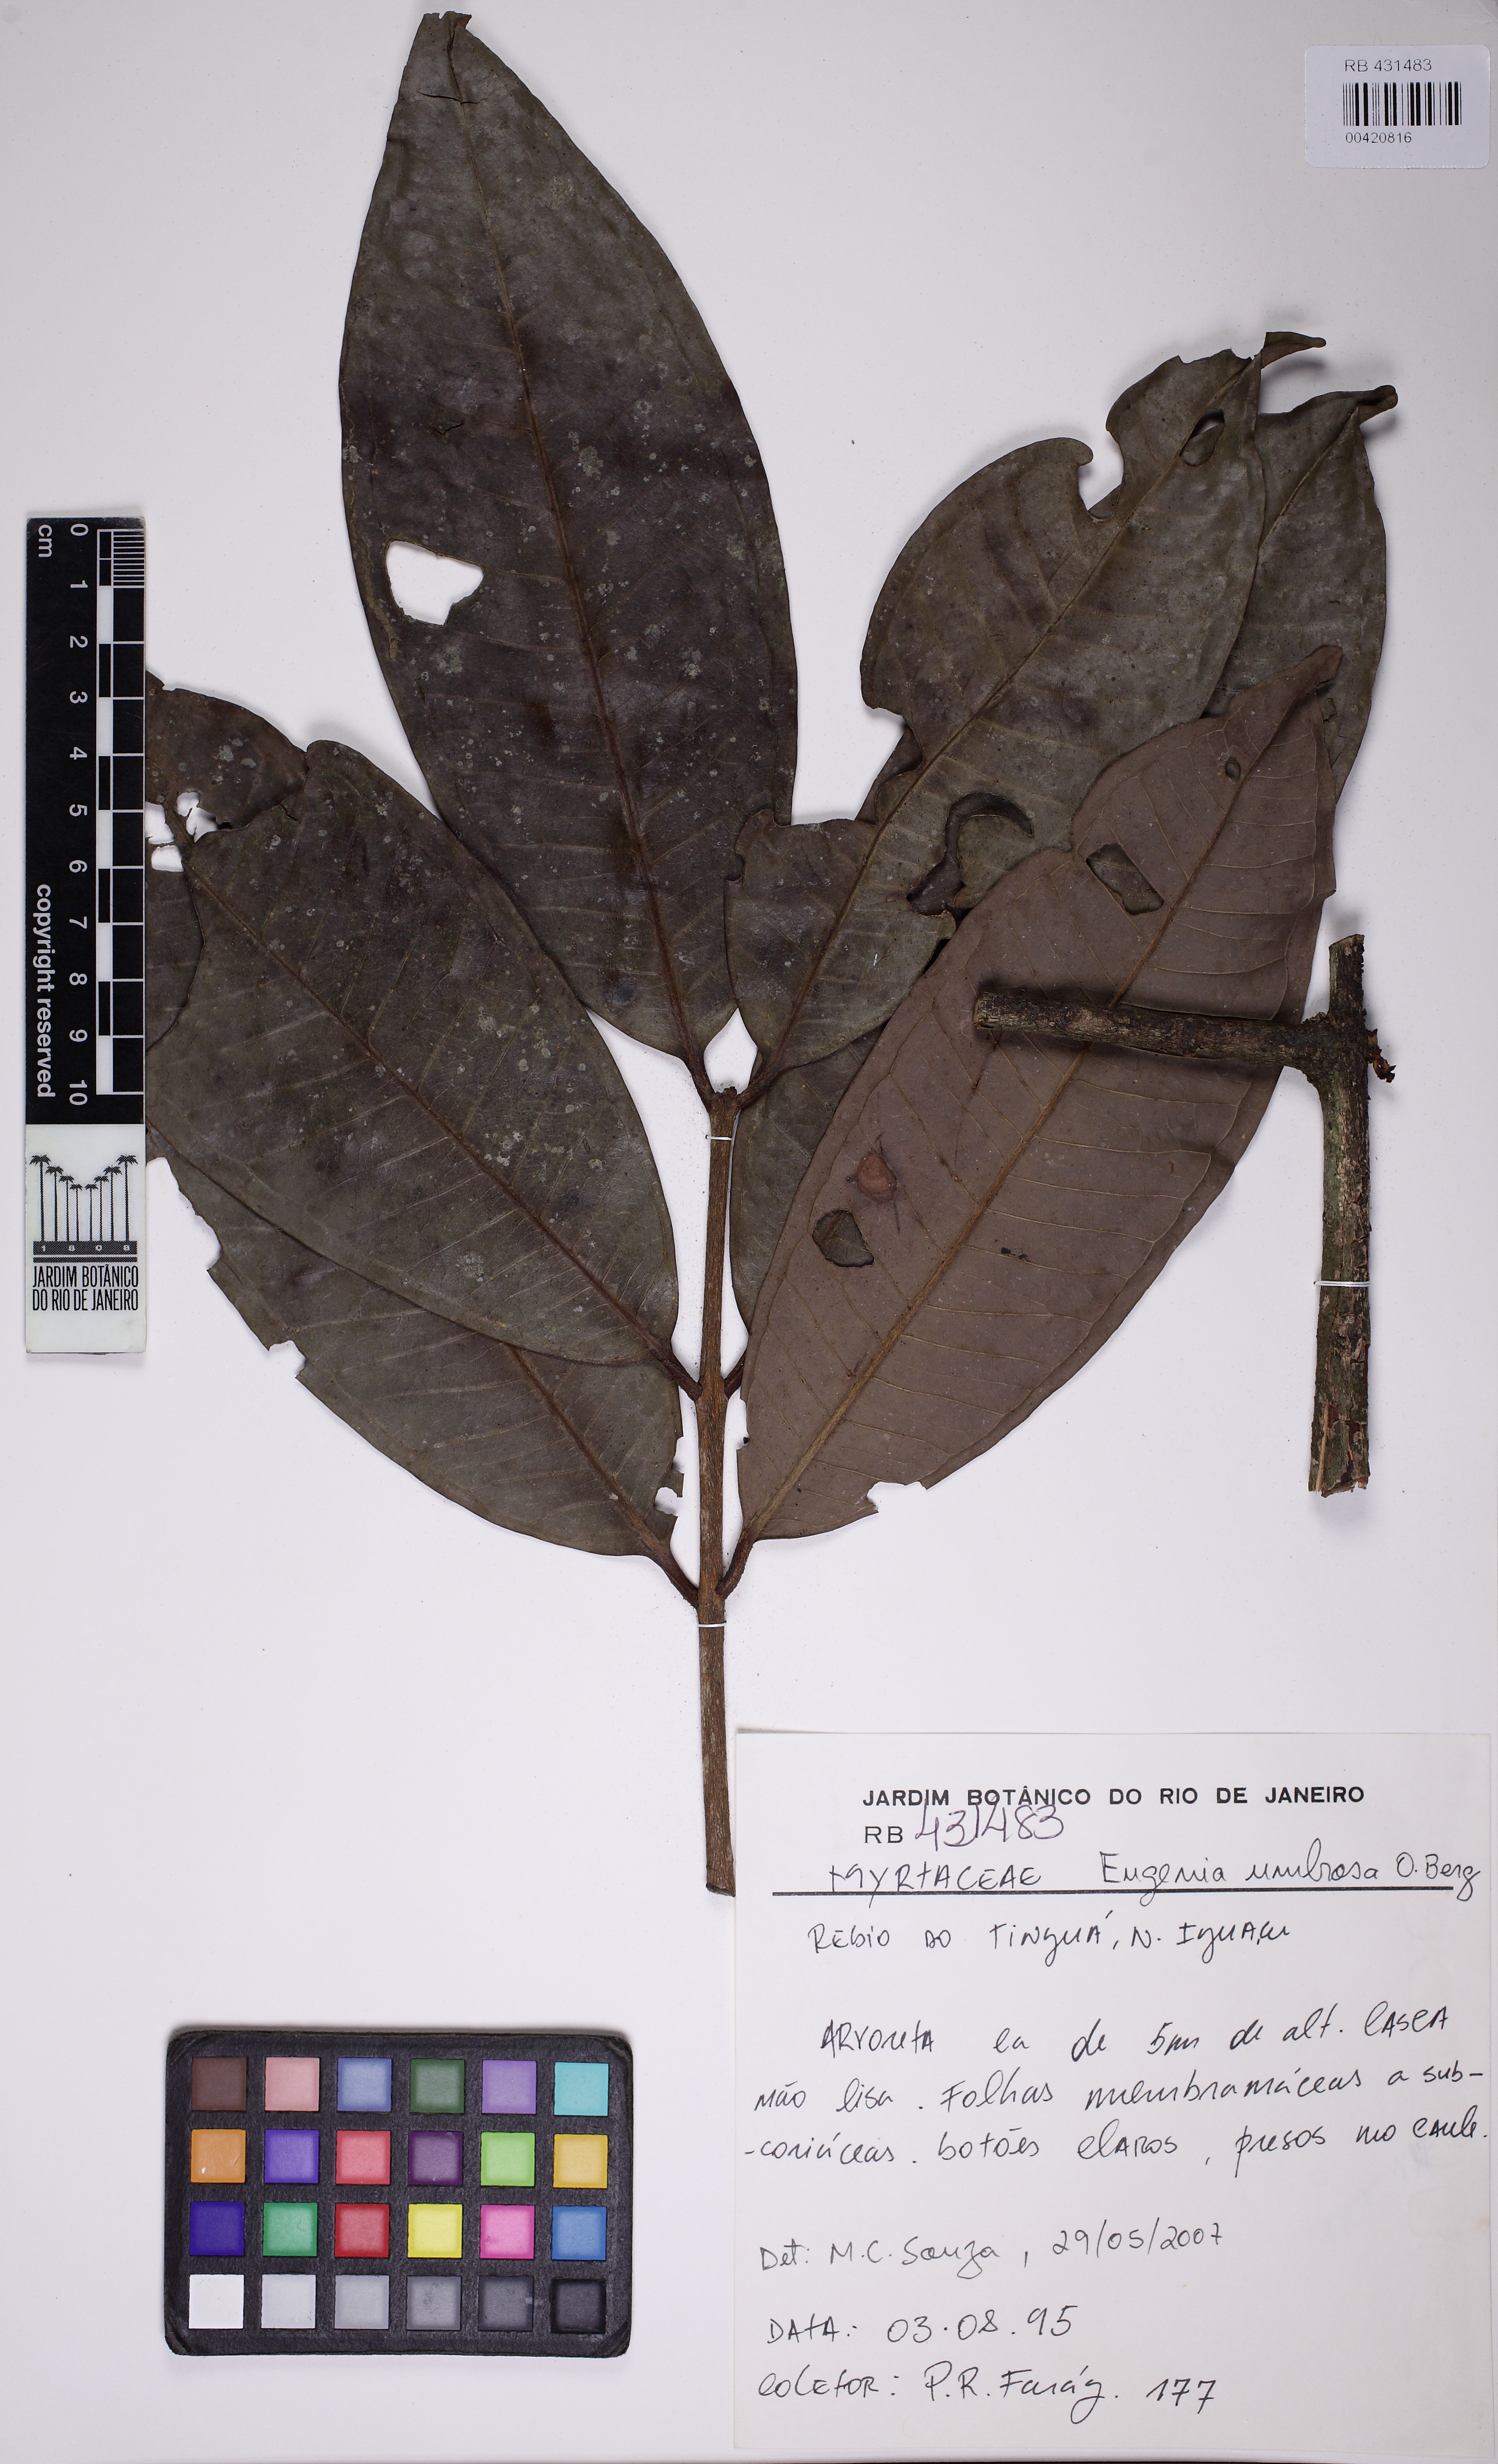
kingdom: Plantae
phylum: Tracheophyta
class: Magnoliopsida
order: Myrtales
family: Myrtaceae
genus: Eugenia
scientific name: Eugenia umbrosa
